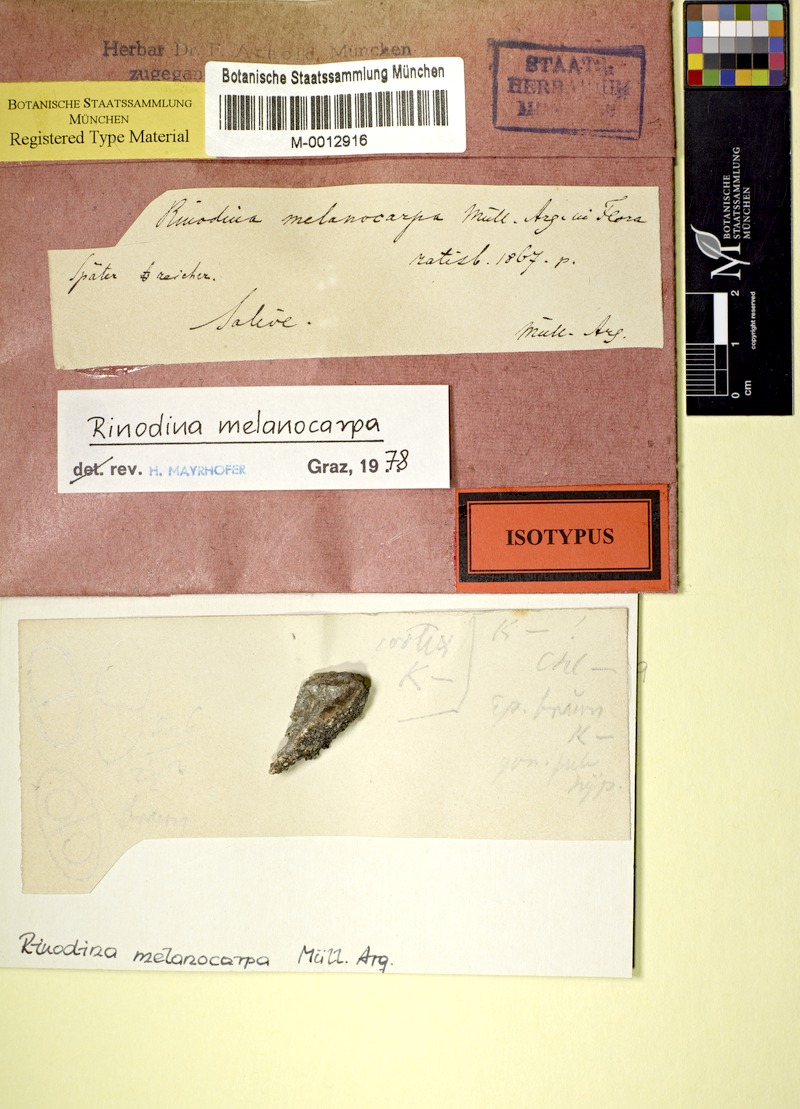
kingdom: Fungi
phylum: Ascomycota
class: Lecanoromycetes
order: Caliciales
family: Physciaceae
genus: Rinodina
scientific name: Rinodina rinodinoides
